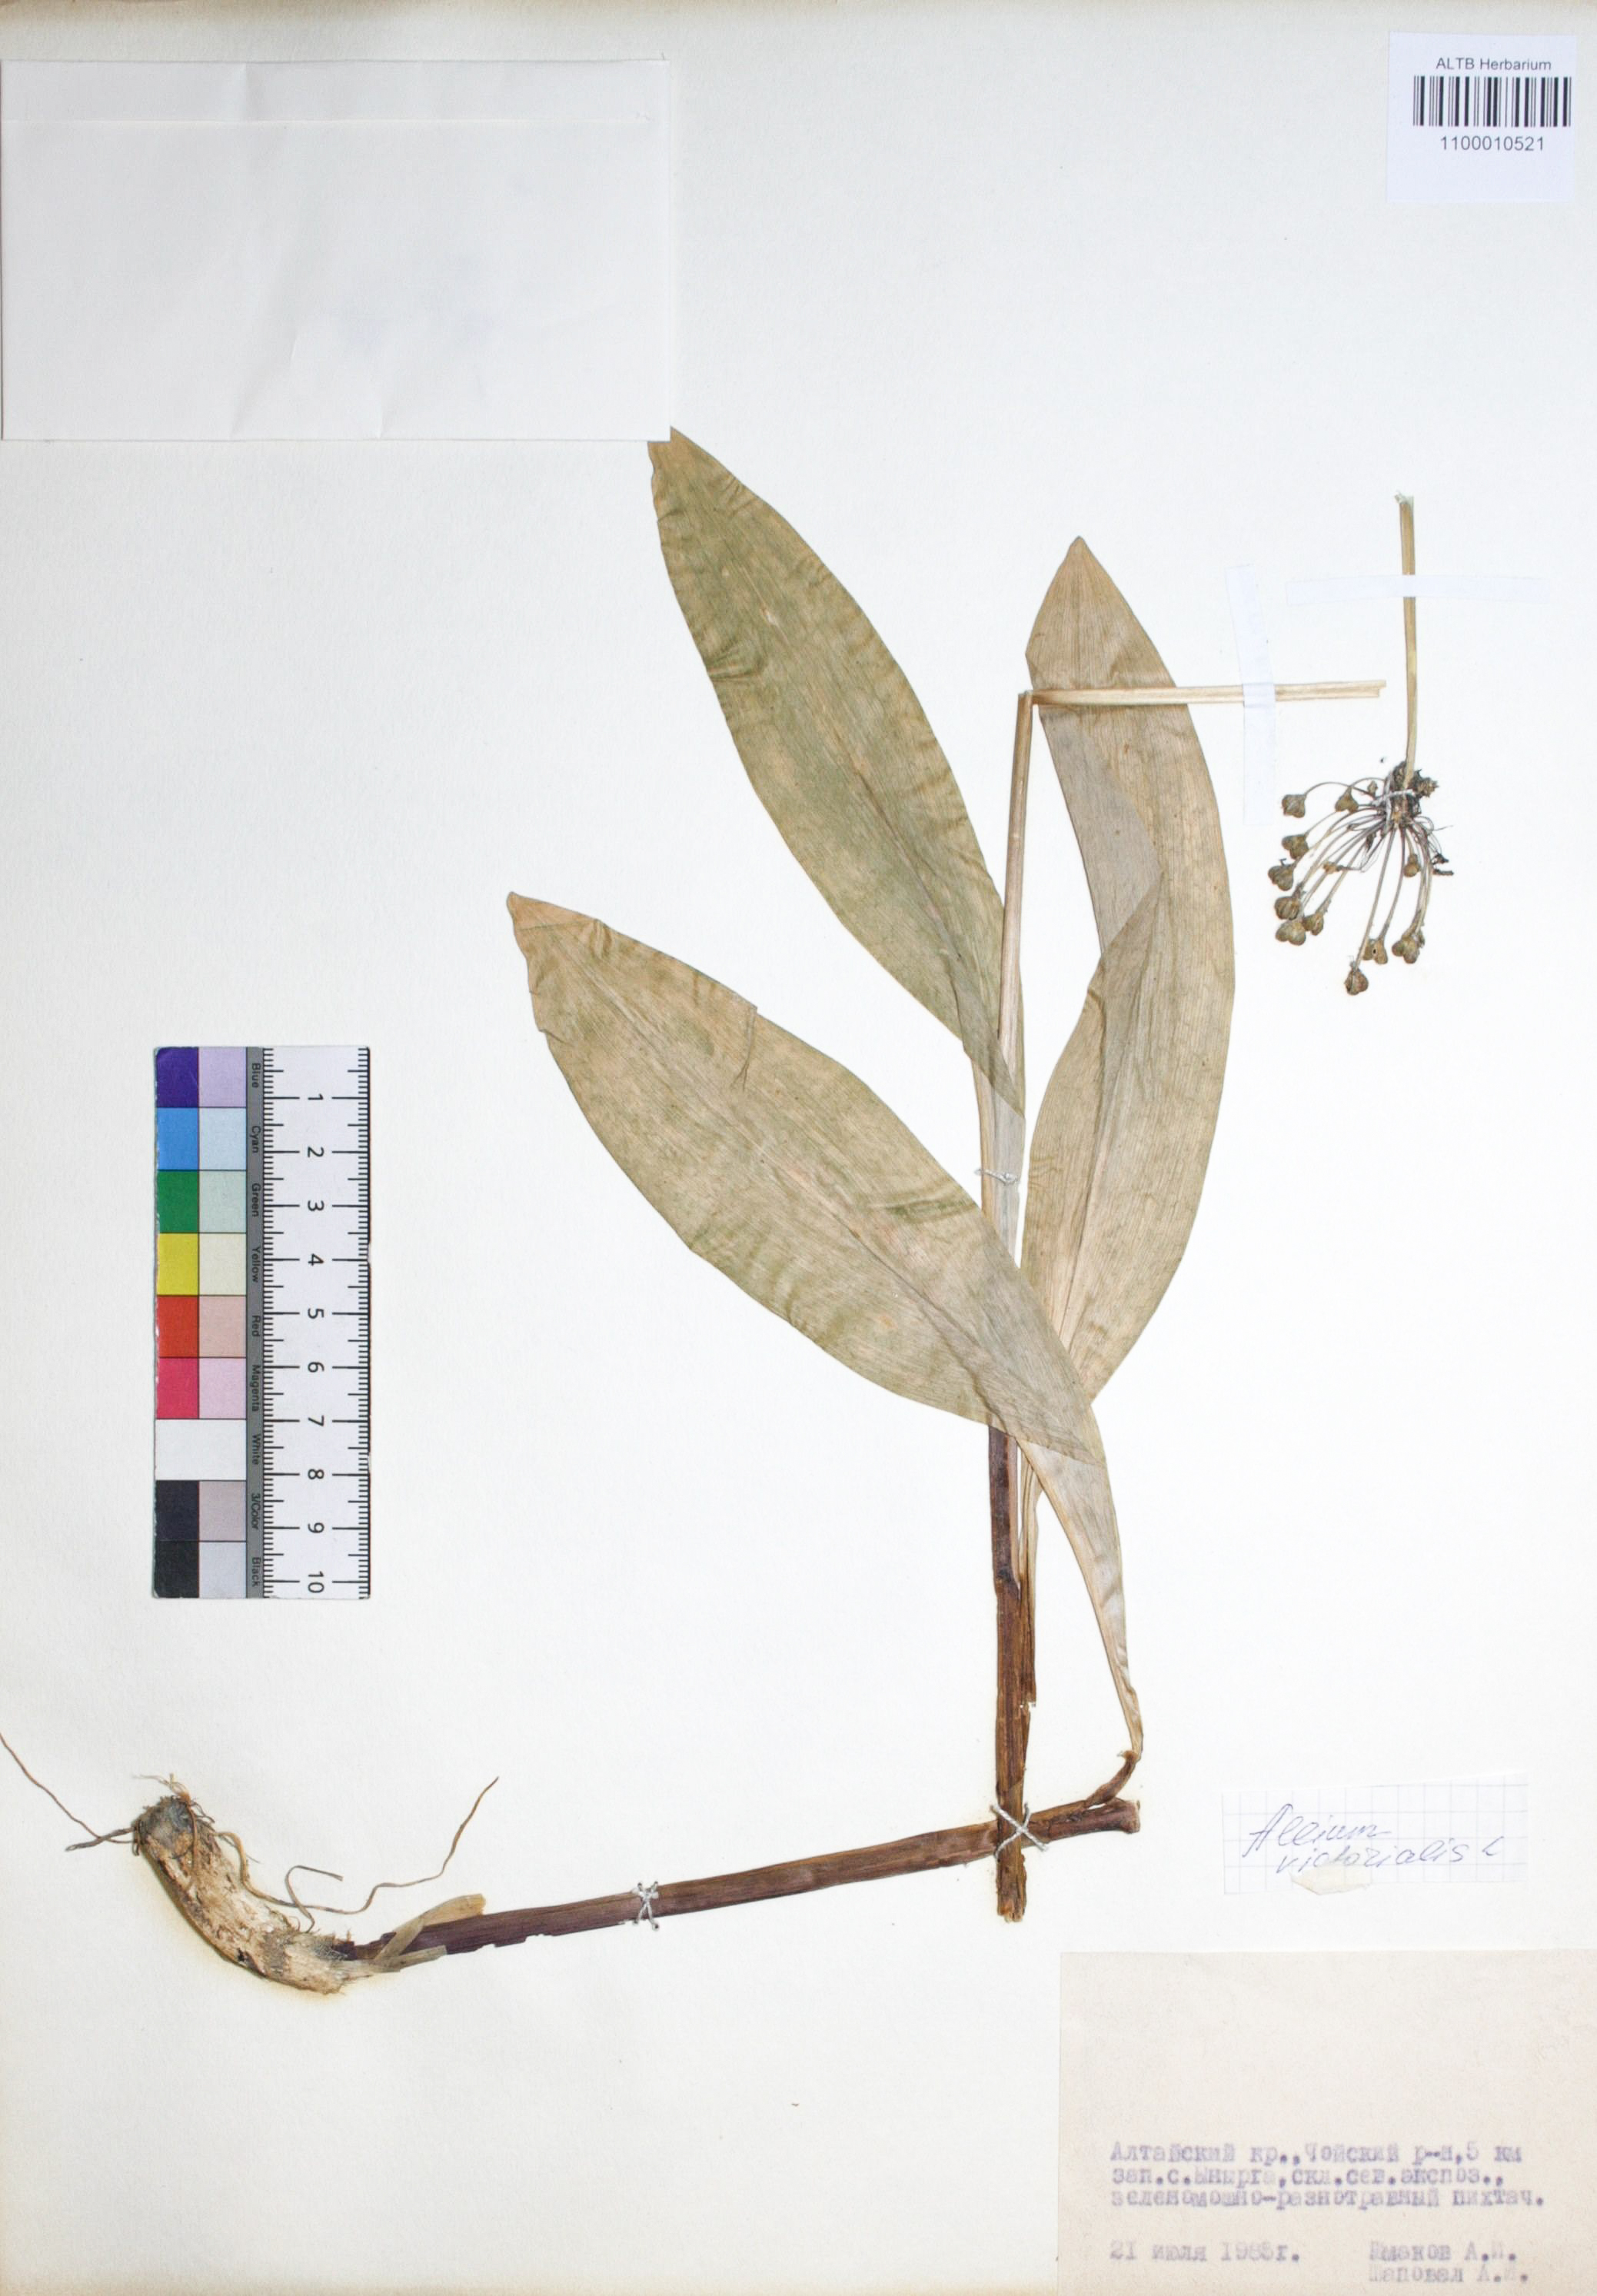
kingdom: Plantae
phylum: Tracheophyta
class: Liliopsida
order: Asparagales
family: Amaryllidaceae
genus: Allium
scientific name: Allium victorialis
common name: Alpine leek
